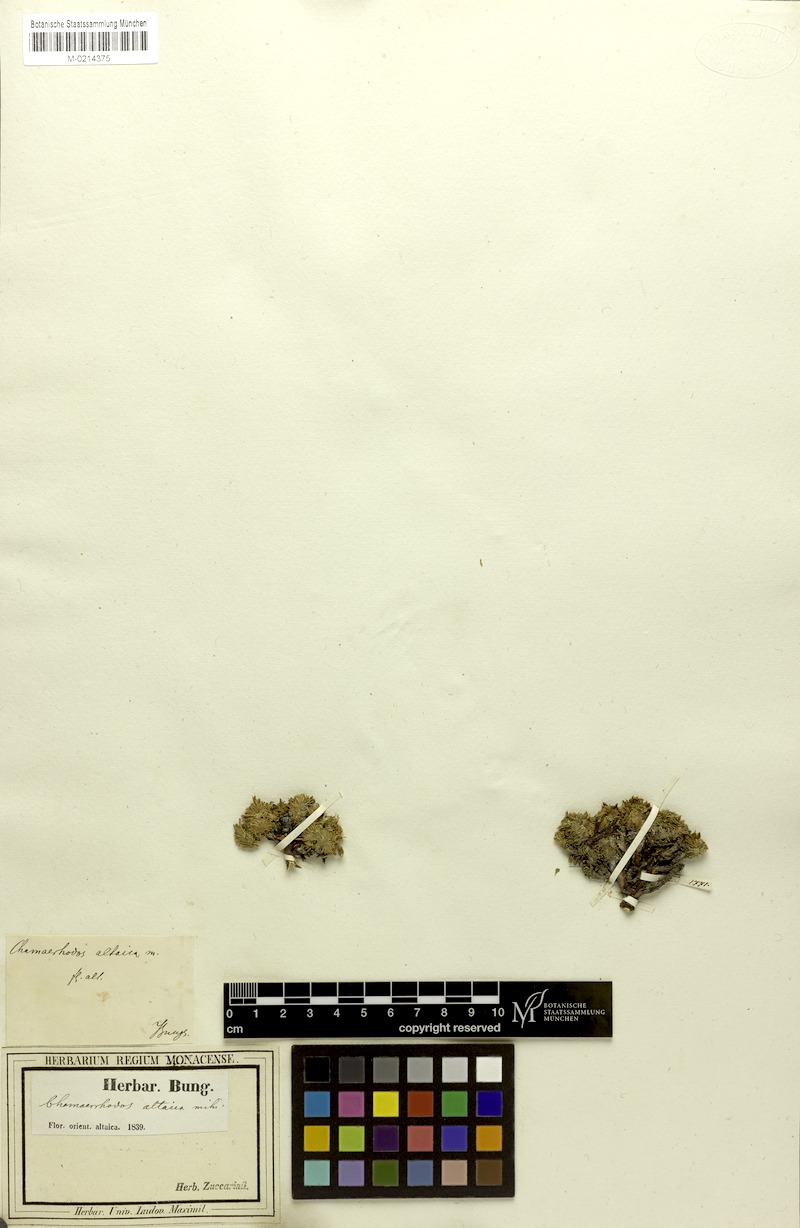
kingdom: Plantae
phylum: Tracheophyta
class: Magnoliopsida
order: Rosales
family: Rosaceae
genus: Chamaerhodos
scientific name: Chamaerhodos altaica
